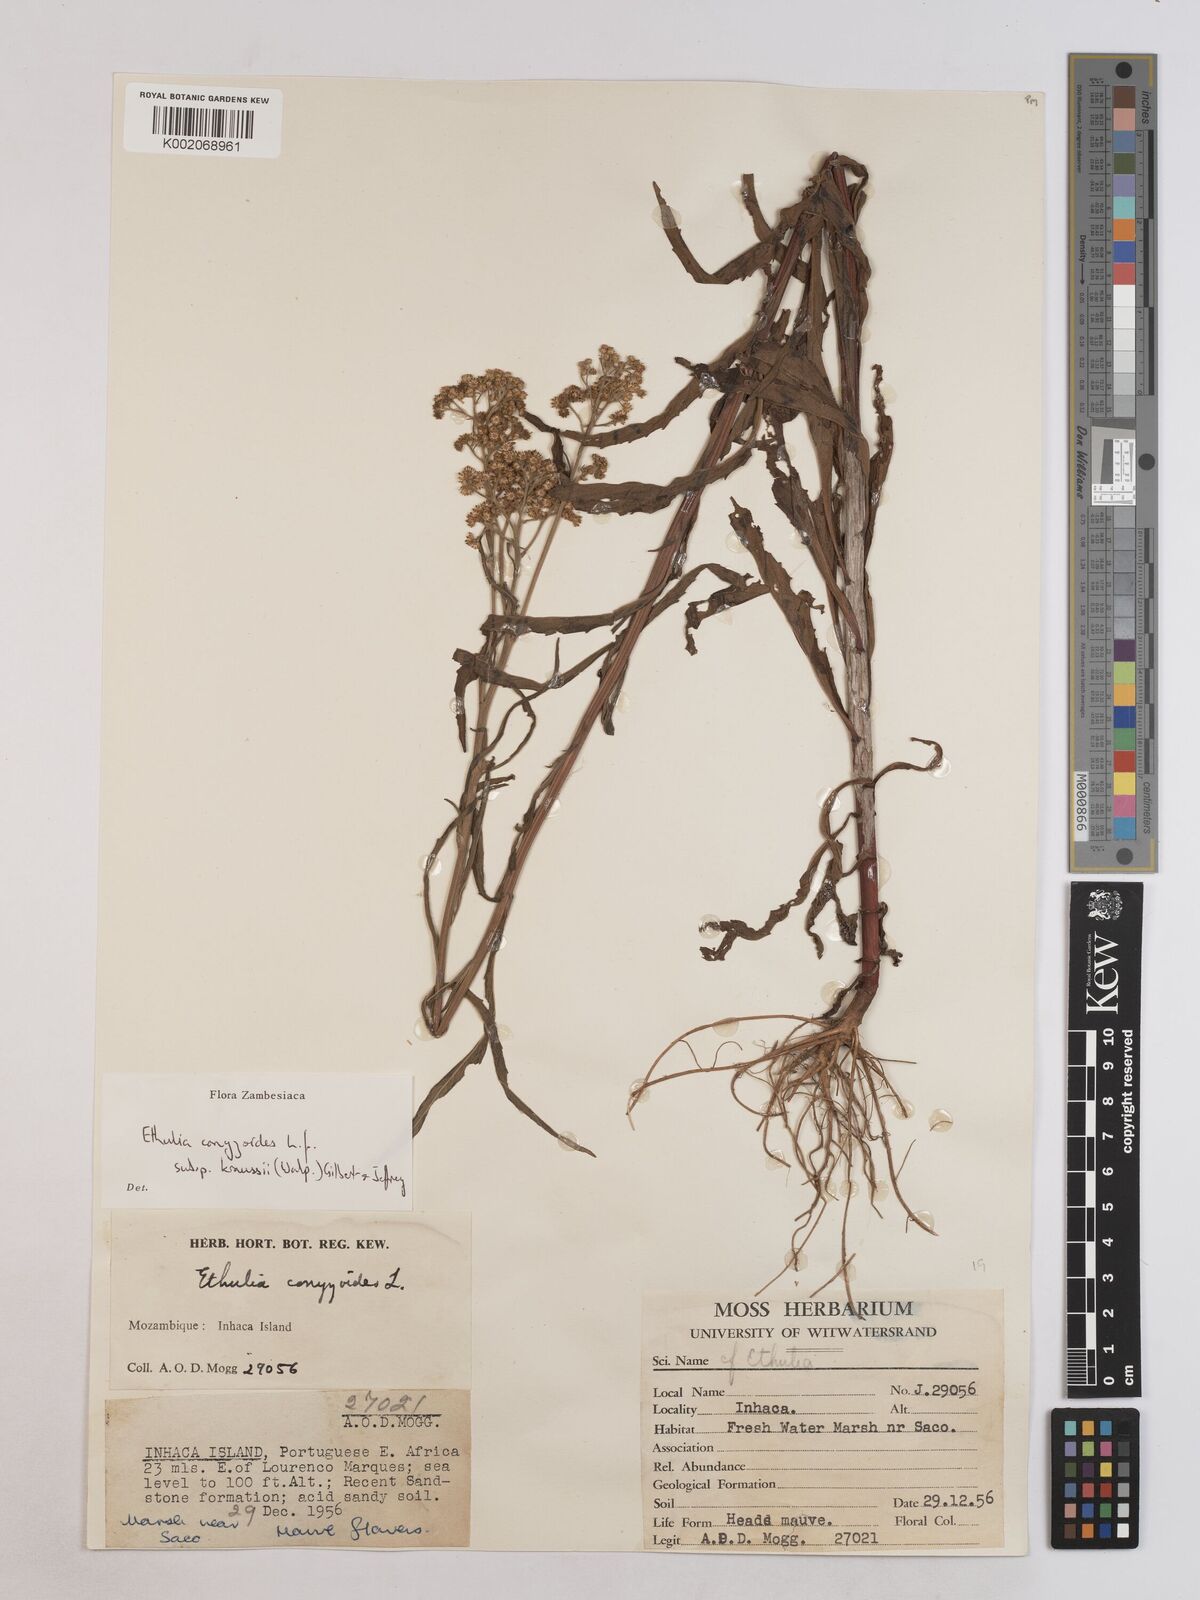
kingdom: Plantae
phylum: Tracheophyta
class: Magnoliopsida
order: Asterales
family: Asteraceae
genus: Ethulia
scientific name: Ethulia conyzoides
